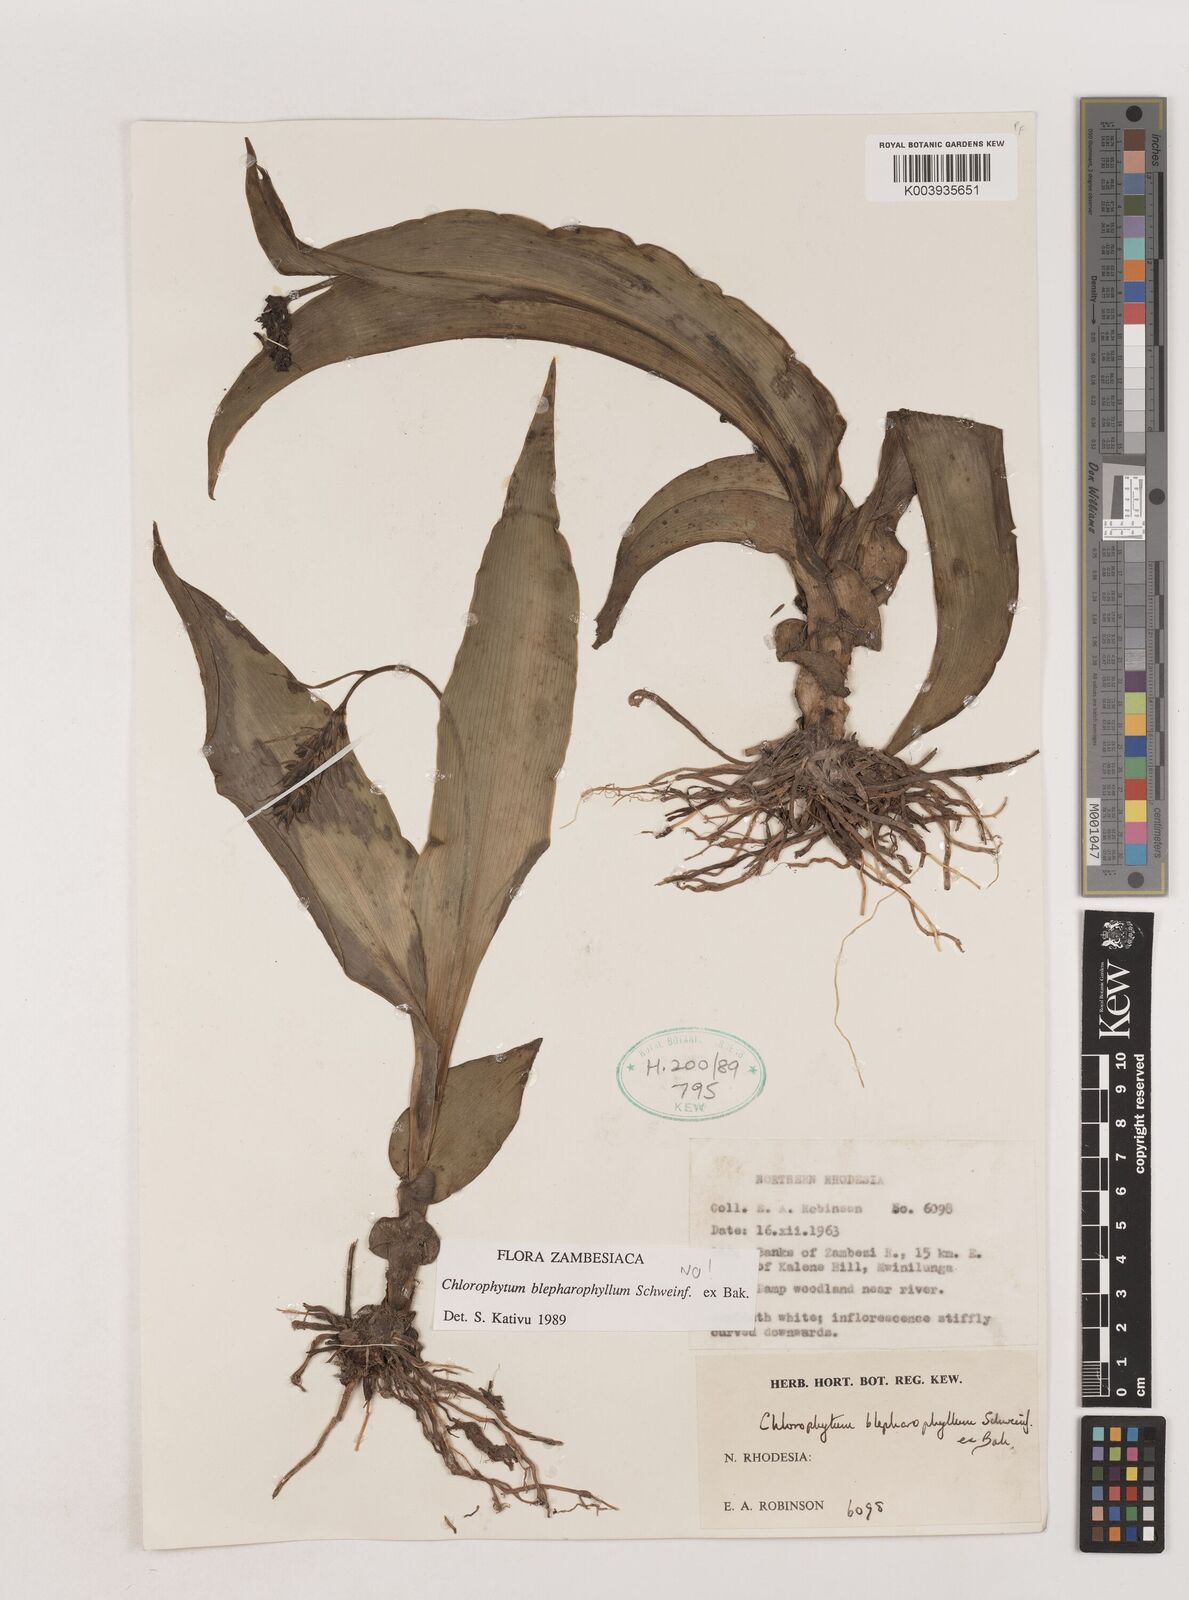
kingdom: Plantae
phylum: Tracheophyta
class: Liliopsida
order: Asparagales
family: Asparagaceae
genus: Chlorophytum
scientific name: Chlorophytum
